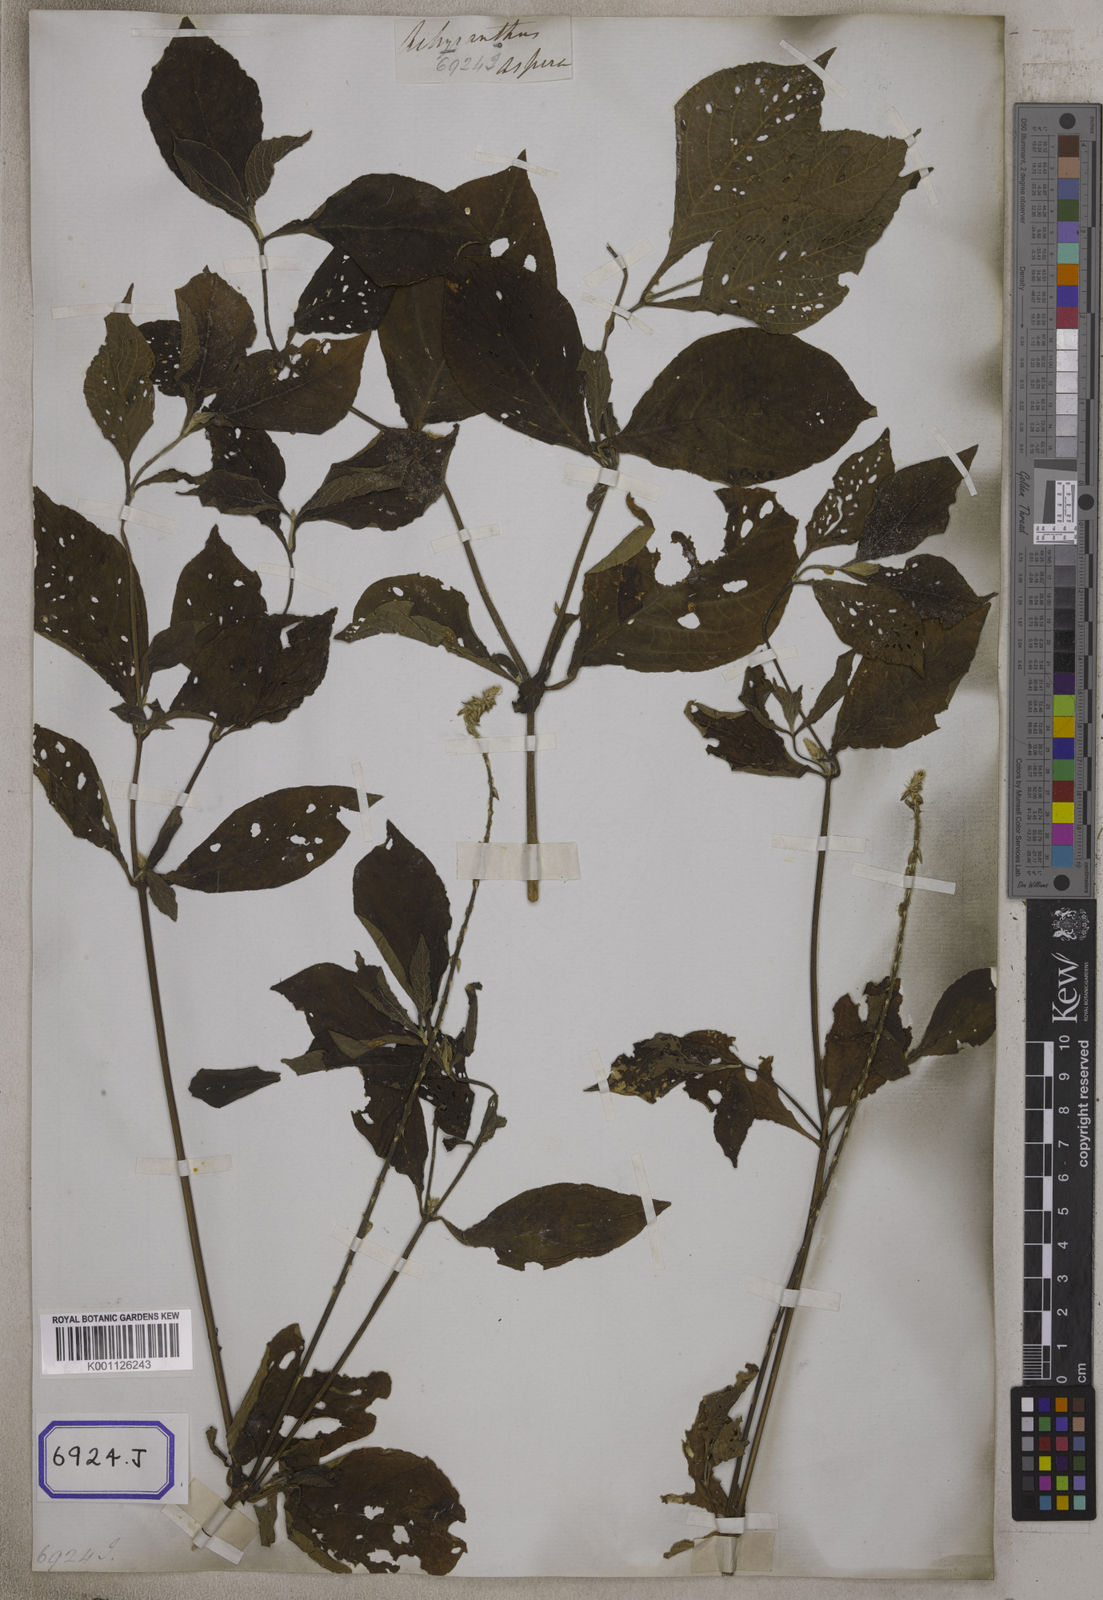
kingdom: Plantae
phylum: Tracheophyta
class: Magnoliopsida
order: Caryophyllales
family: Amaranthaceae
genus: Achyranthes
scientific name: Achyranthes
